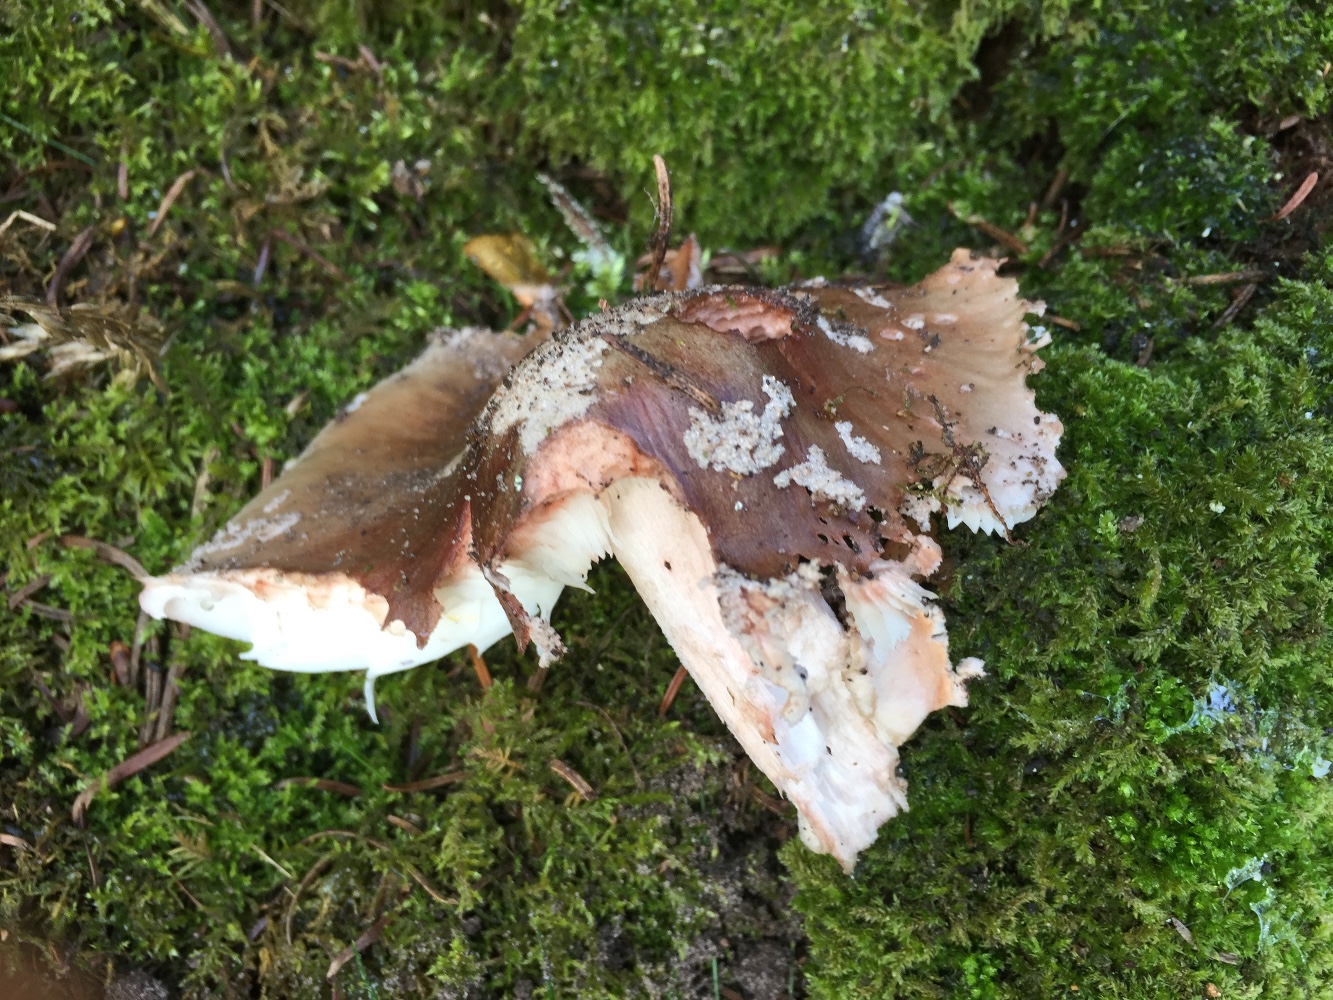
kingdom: Fungi
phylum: Basidiomycota
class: Agaricomycetes
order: Agaricales
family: Amanitaceae
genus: Amanita
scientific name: Amanita rubescens
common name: rødmende fluesvamp
